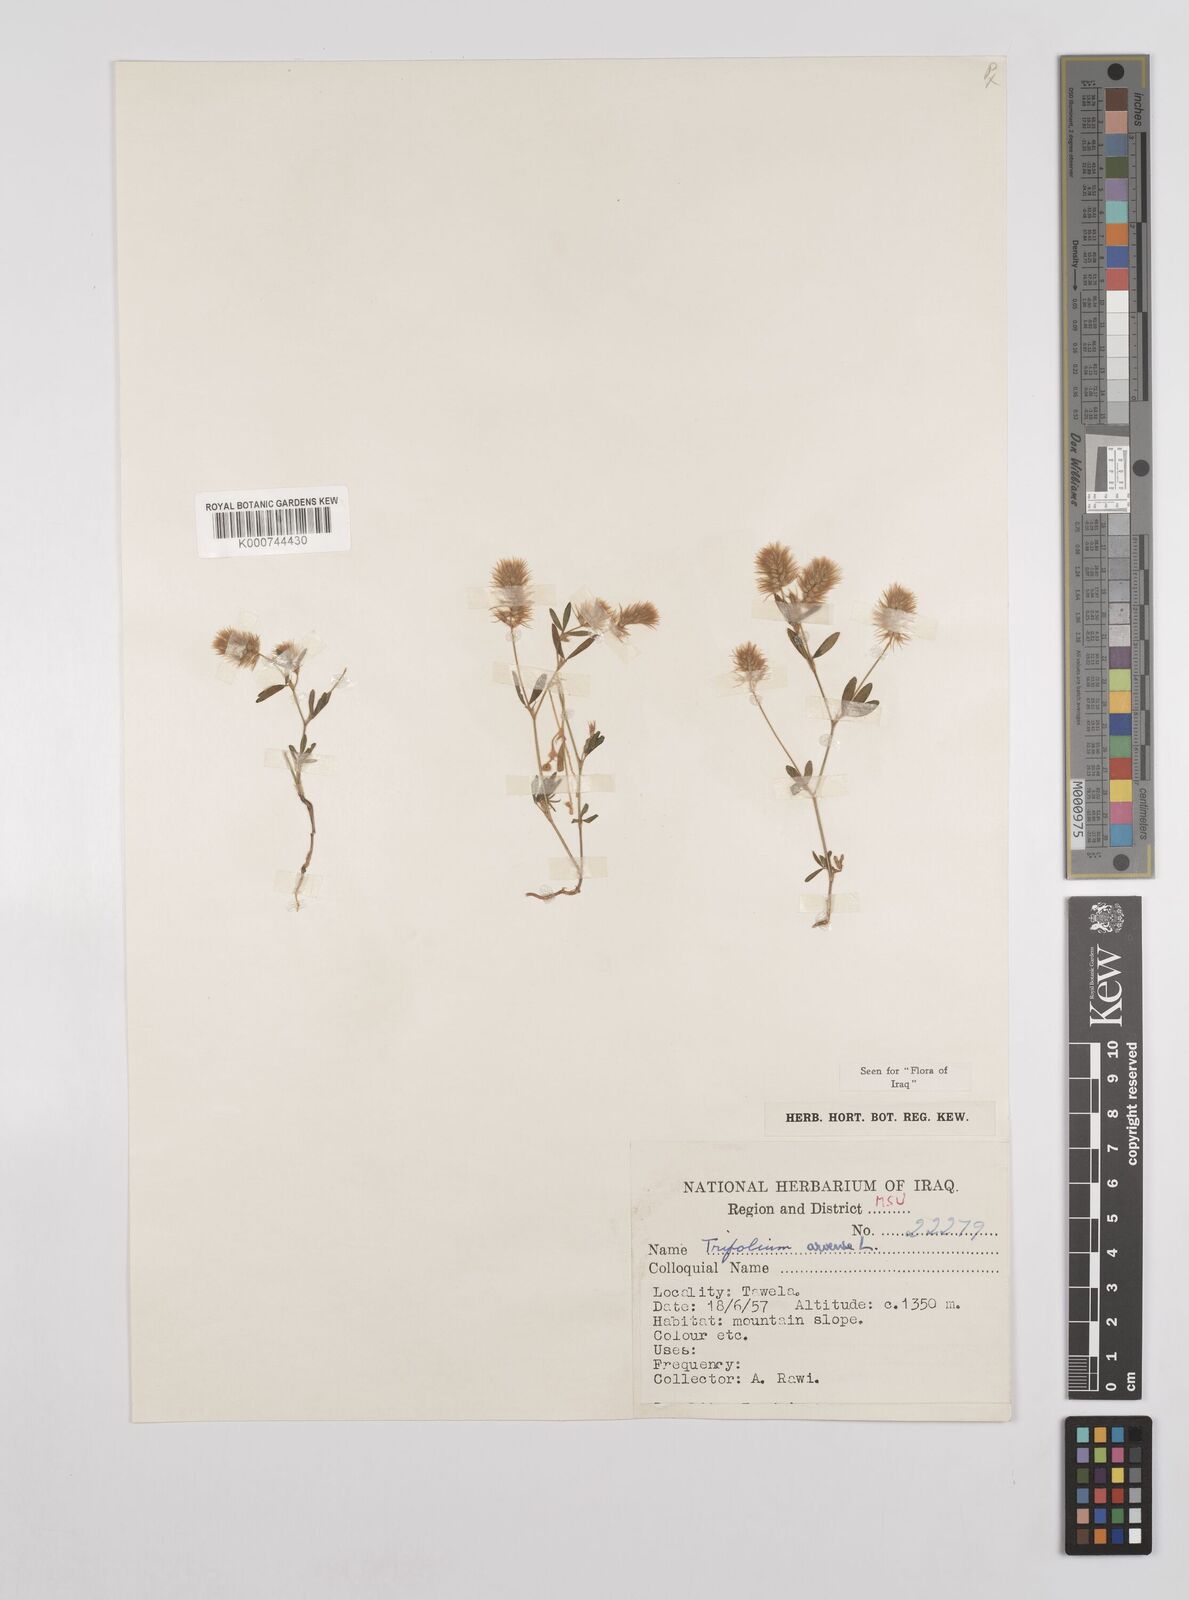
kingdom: Plantae
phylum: Tracheophyta
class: Magnoliopsida
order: Fabales
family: Fabaceae
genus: Trifolium
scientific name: Trifolium arvense
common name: Hare's-foot clover
